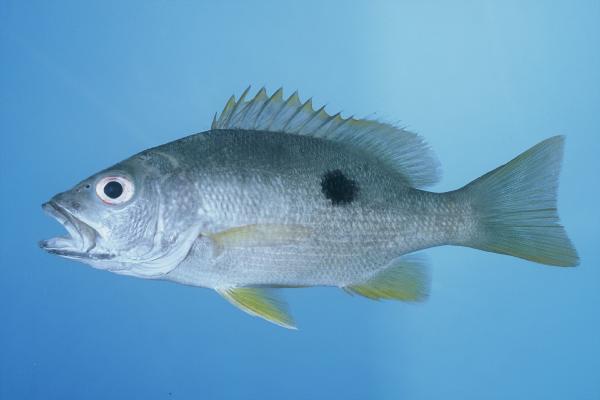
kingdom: Animalia
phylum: Chordata
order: Perciformes
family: Lutjanidae
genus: Lutjanus
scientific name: Lutjanus monostigma
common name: Onespot snapper
